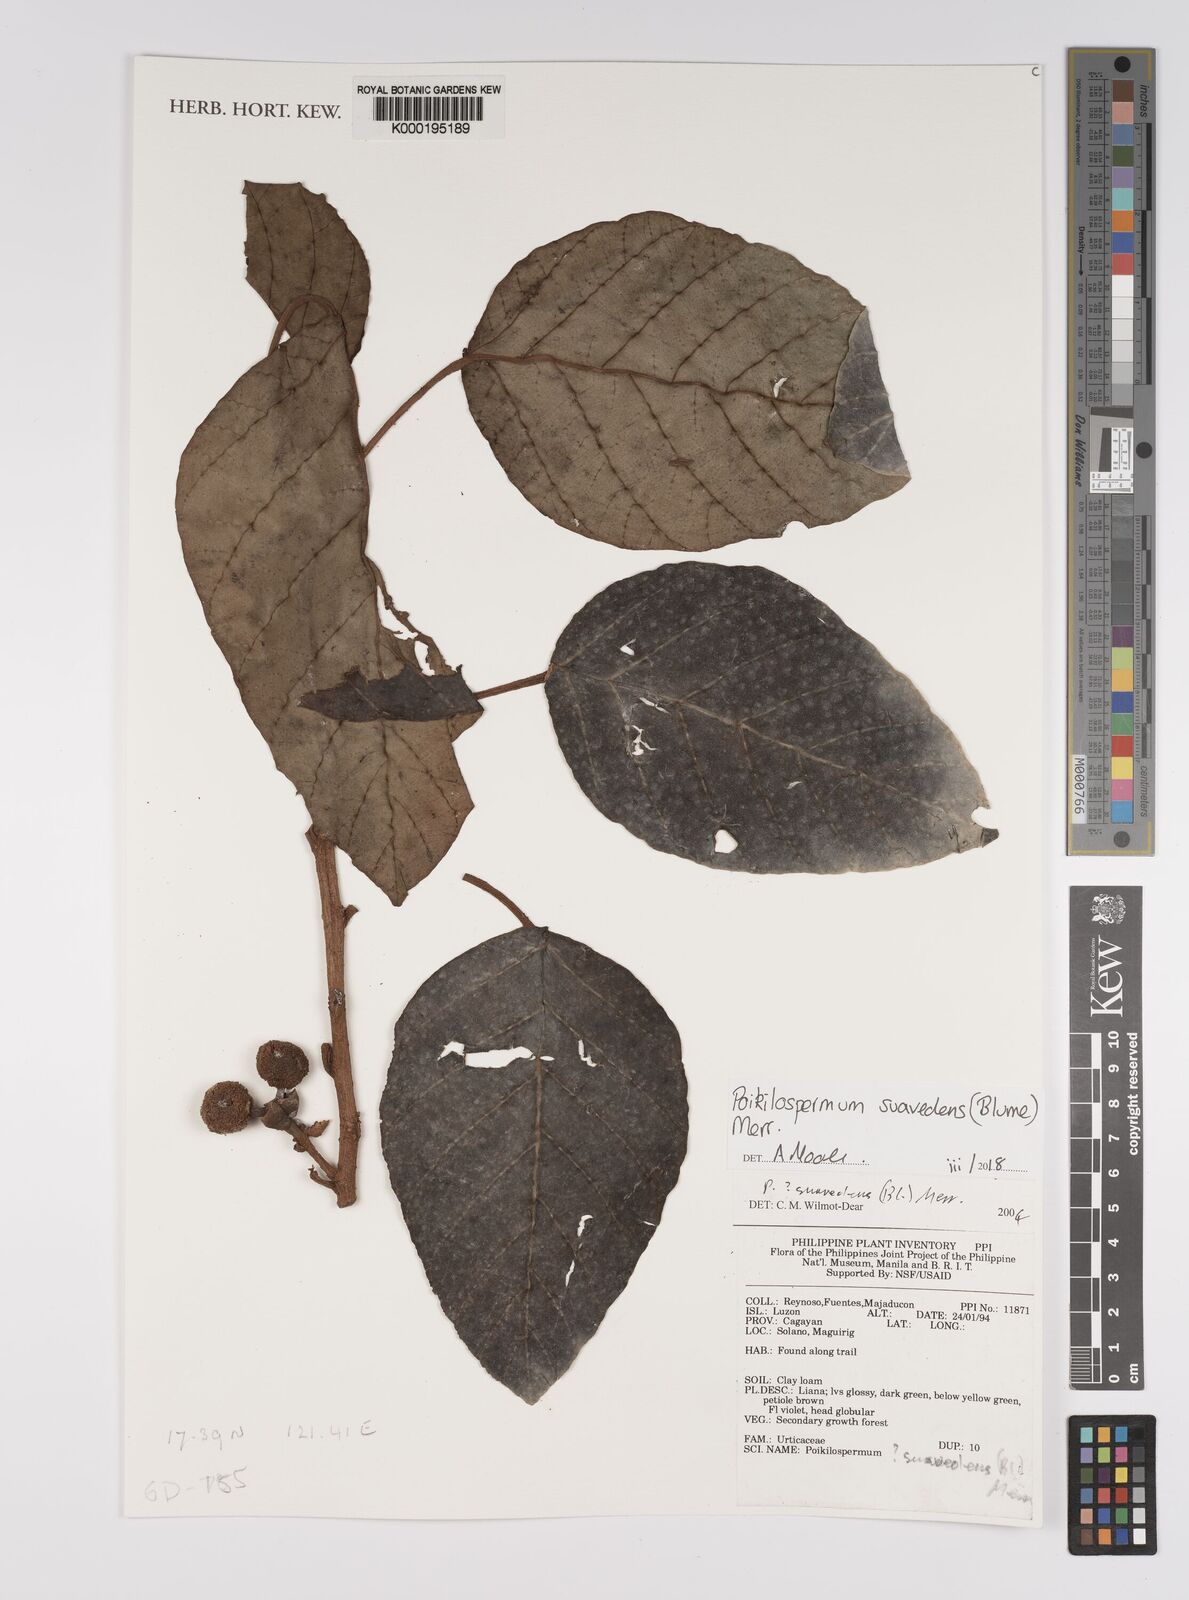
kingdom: Plantae
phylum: Tracheophyta
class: Magnoliopsida
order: Rosales
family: Urticaceae
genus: Poikilospermum
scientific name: Poikilospermum suaveolens
